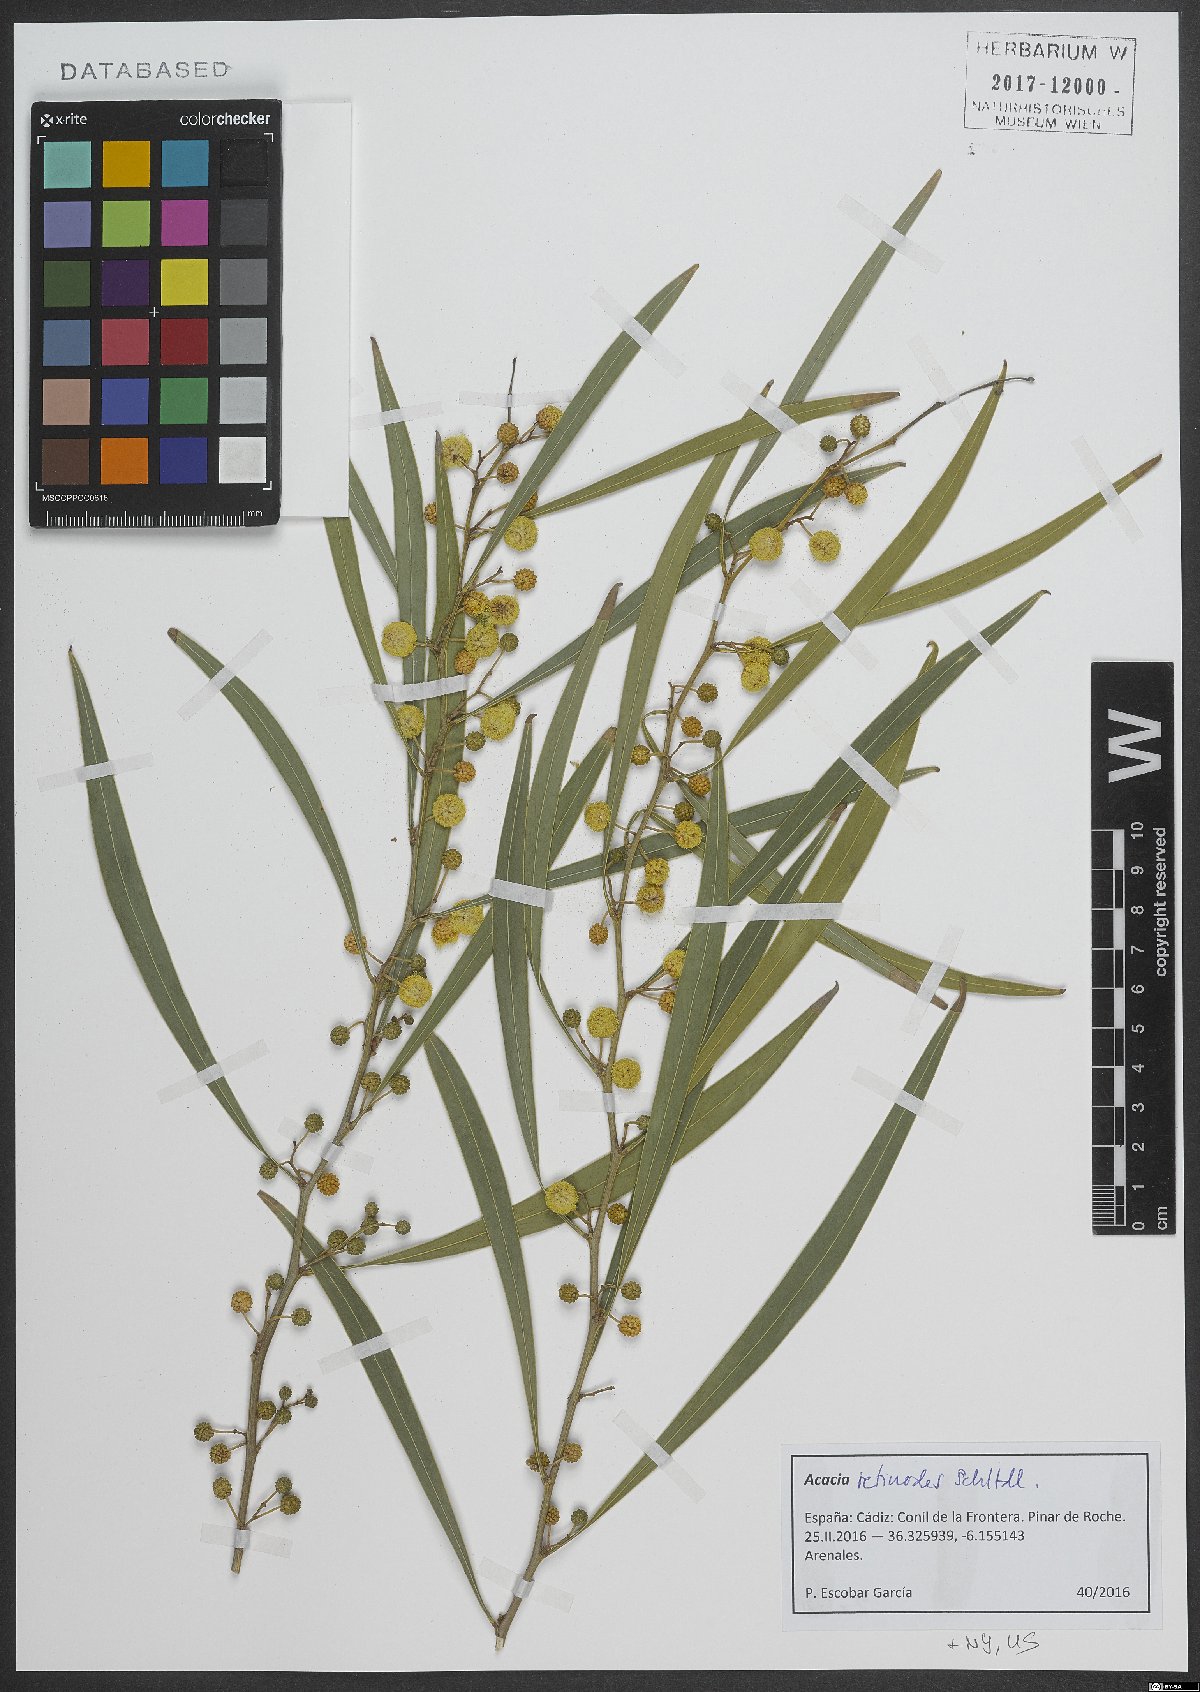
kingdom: Plantae
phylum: Tracheophyta
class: Magnoliopsida
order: Fabales
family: Fabaceae
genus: Acacia
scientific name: Acacia retinodes
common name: Silver wattle
